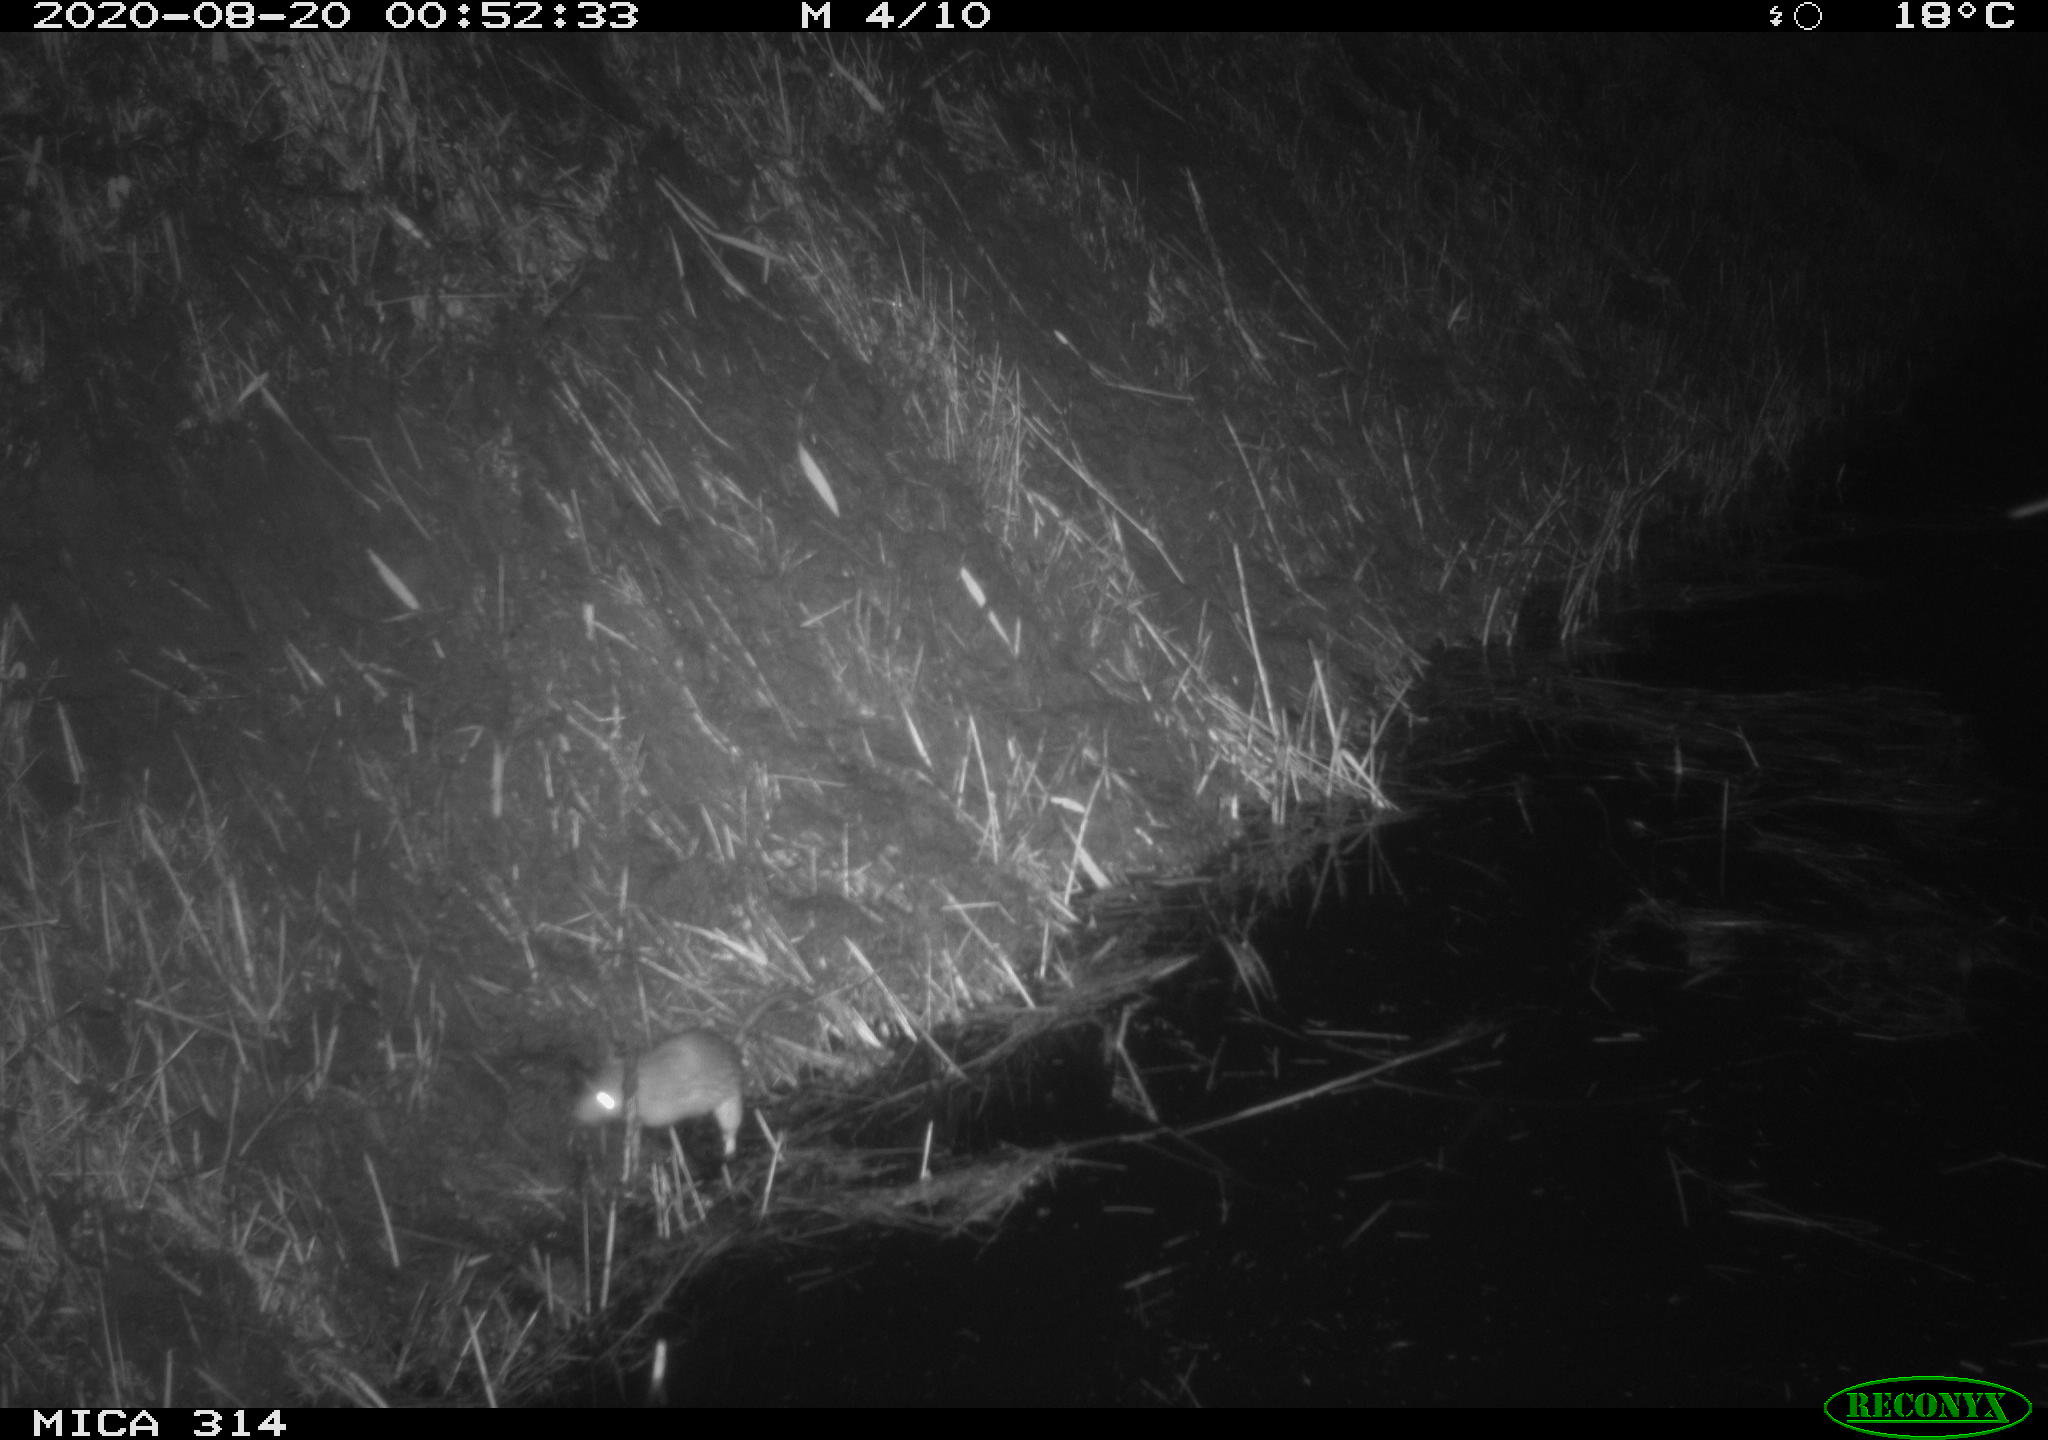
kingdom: Animalia
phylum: Chordata
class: Mammalia
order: Rodentia
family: Muridae
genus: Rattus
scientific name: Rattus norvegicus
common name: Brown rat
